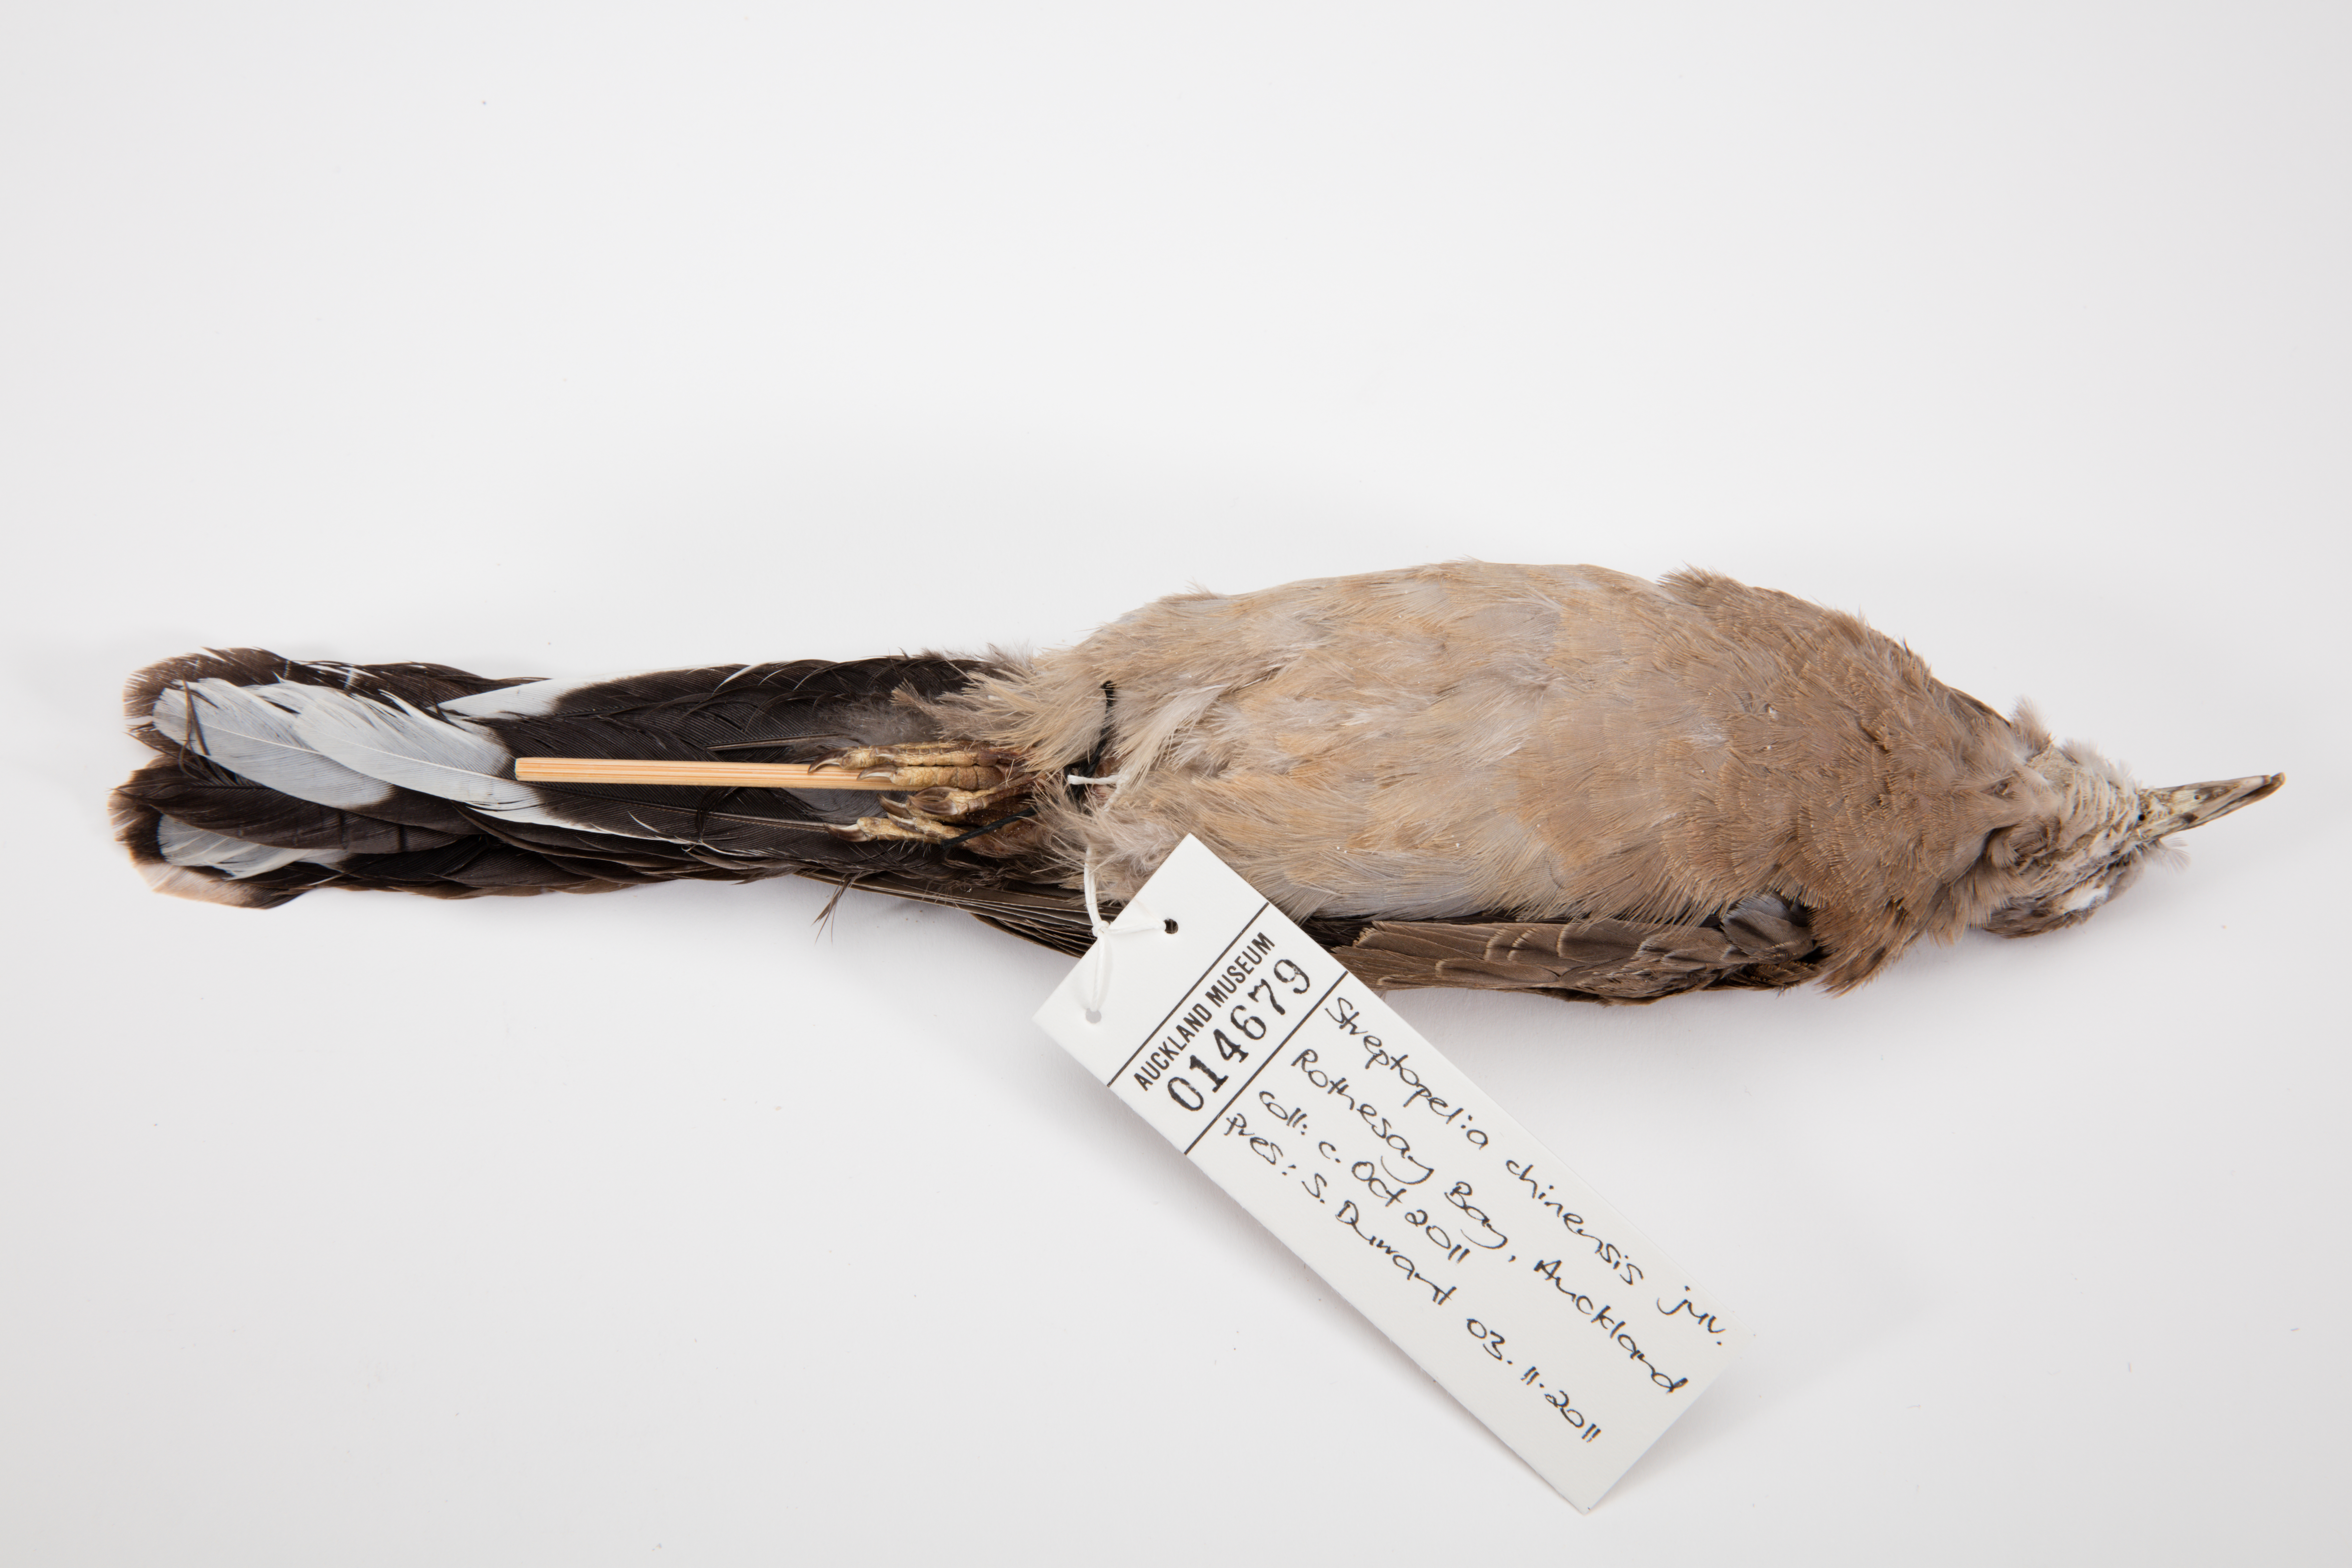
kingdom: Animalia
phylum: Chordata
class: Aves
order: Columbiformes
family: Columbidae
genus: Spilopelia
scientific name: Spilopelia chinensis
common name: Spotted dove
